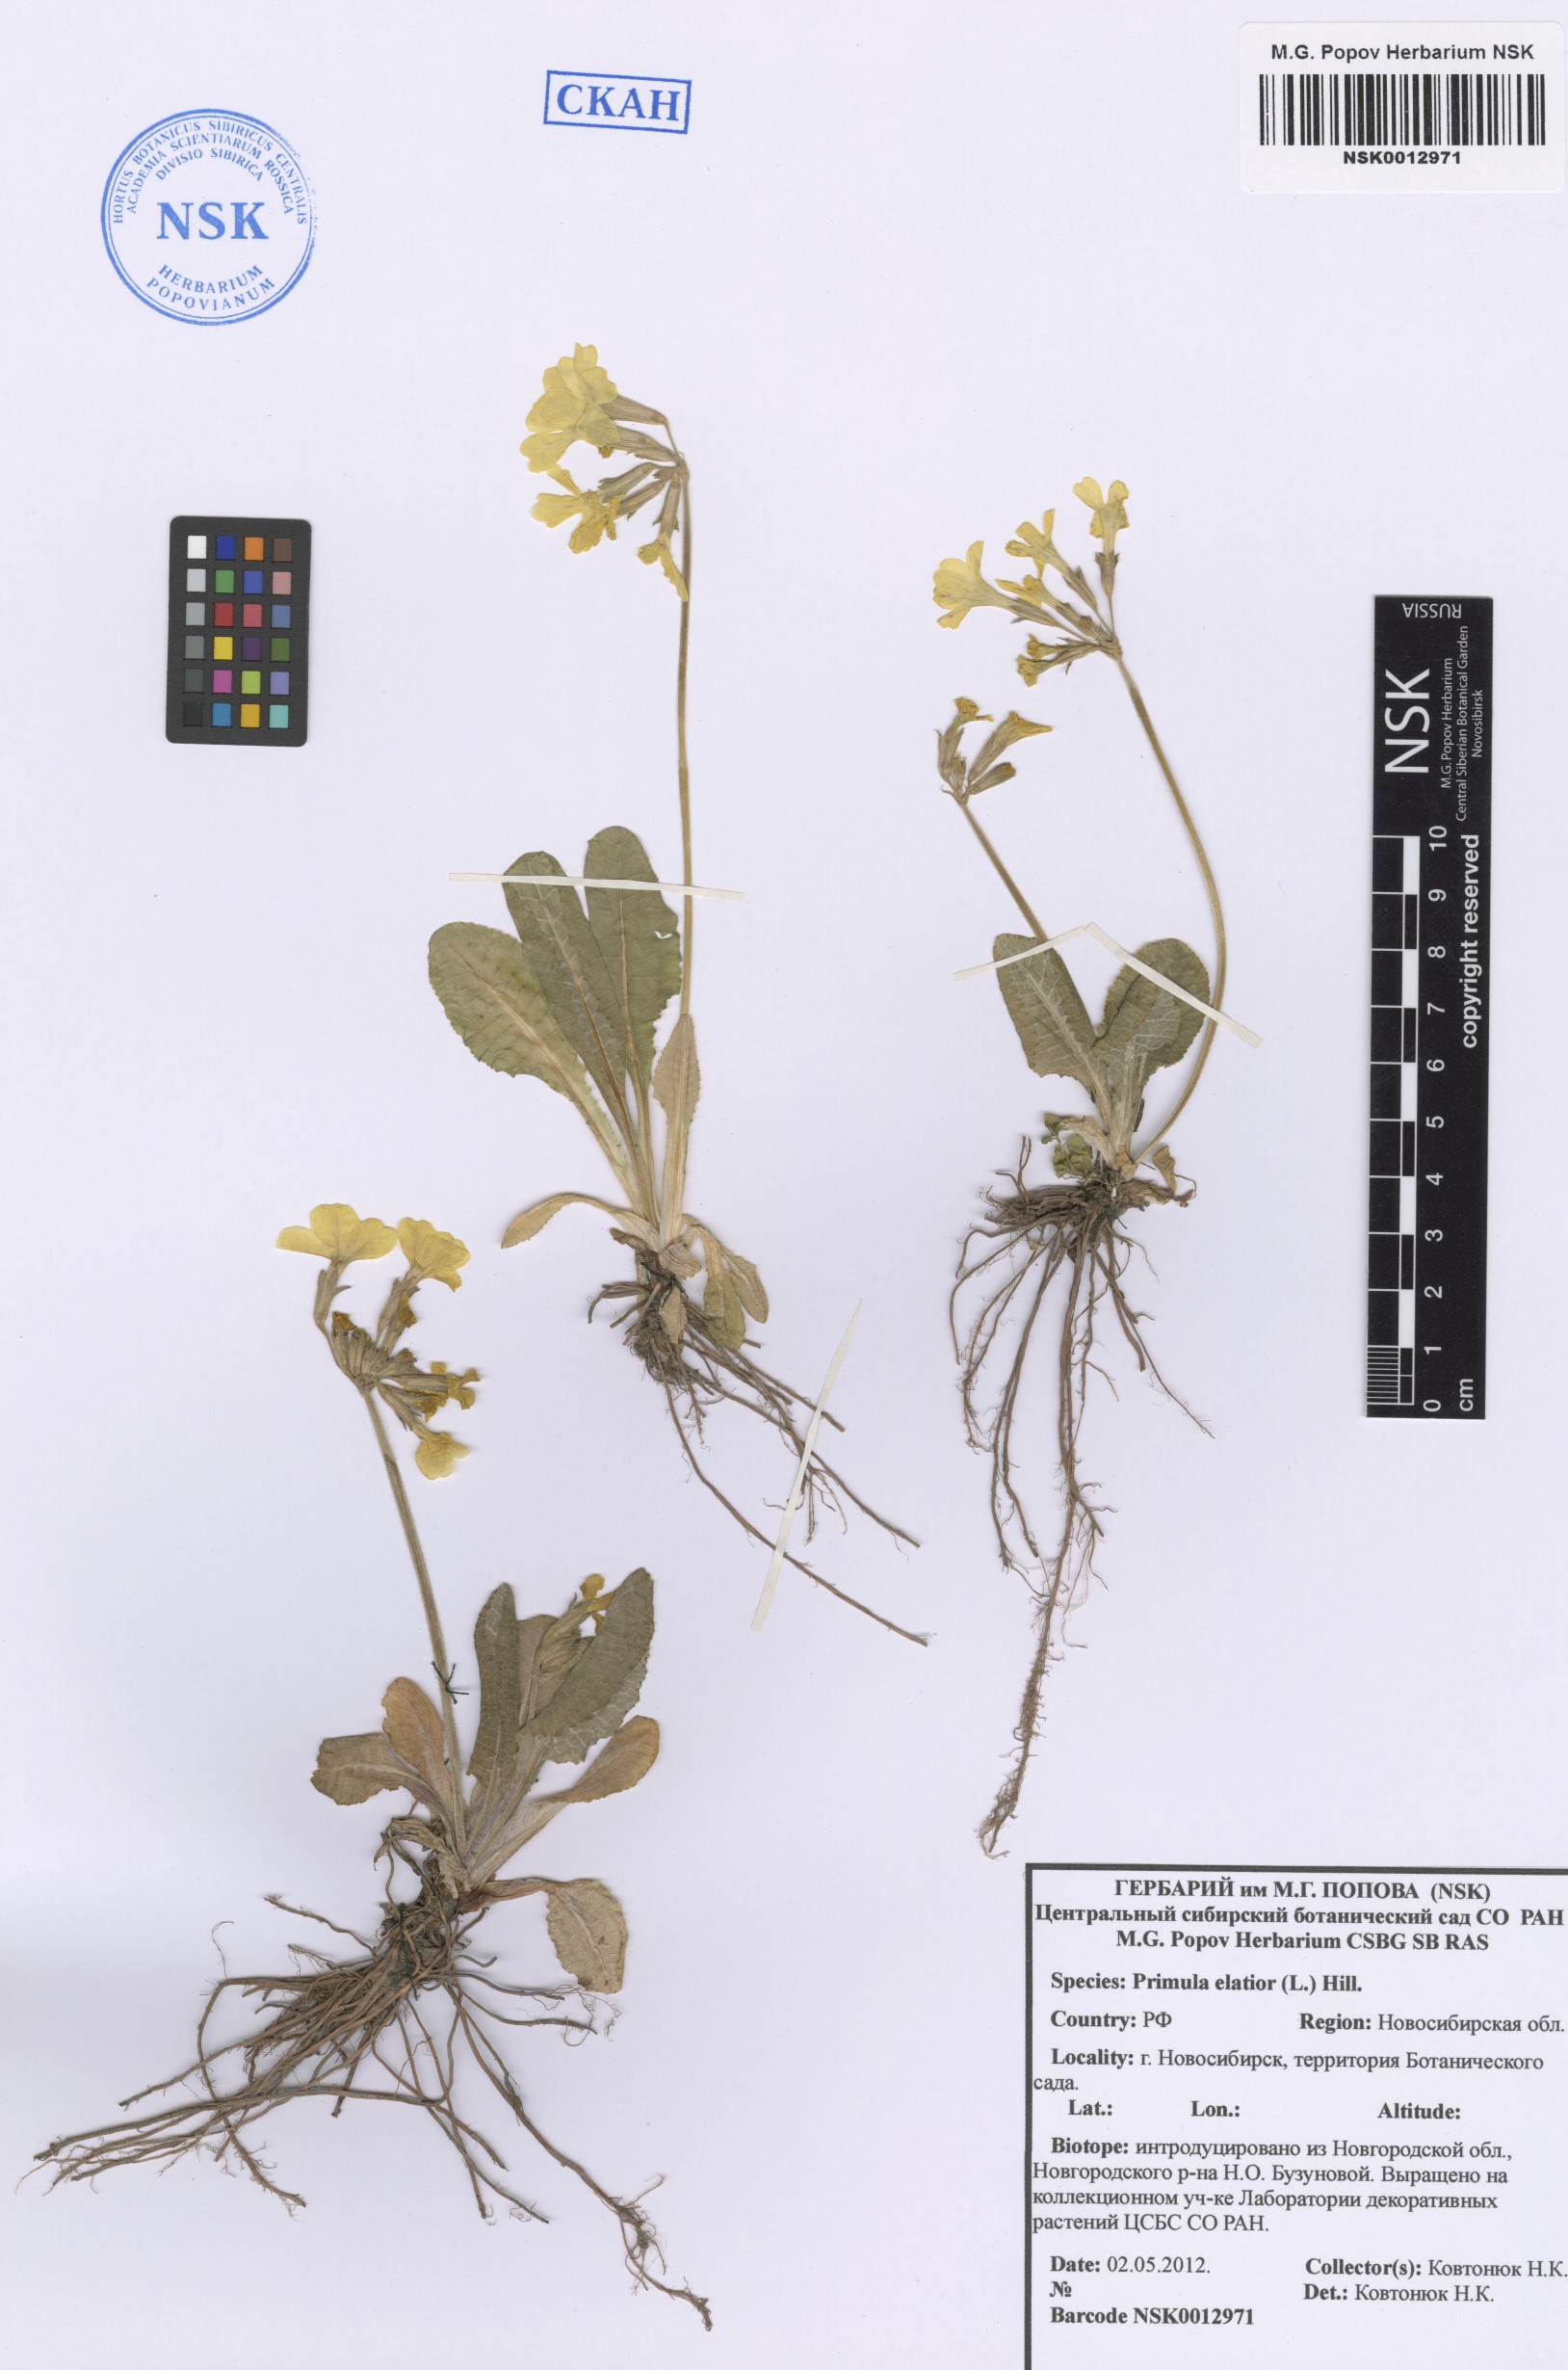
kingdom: Plantae
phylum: Tracheophyta
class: Magnoliopsida
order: Ericales
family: Primulaceae
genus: Primula
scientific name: Primula elatior
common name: Oxlip
